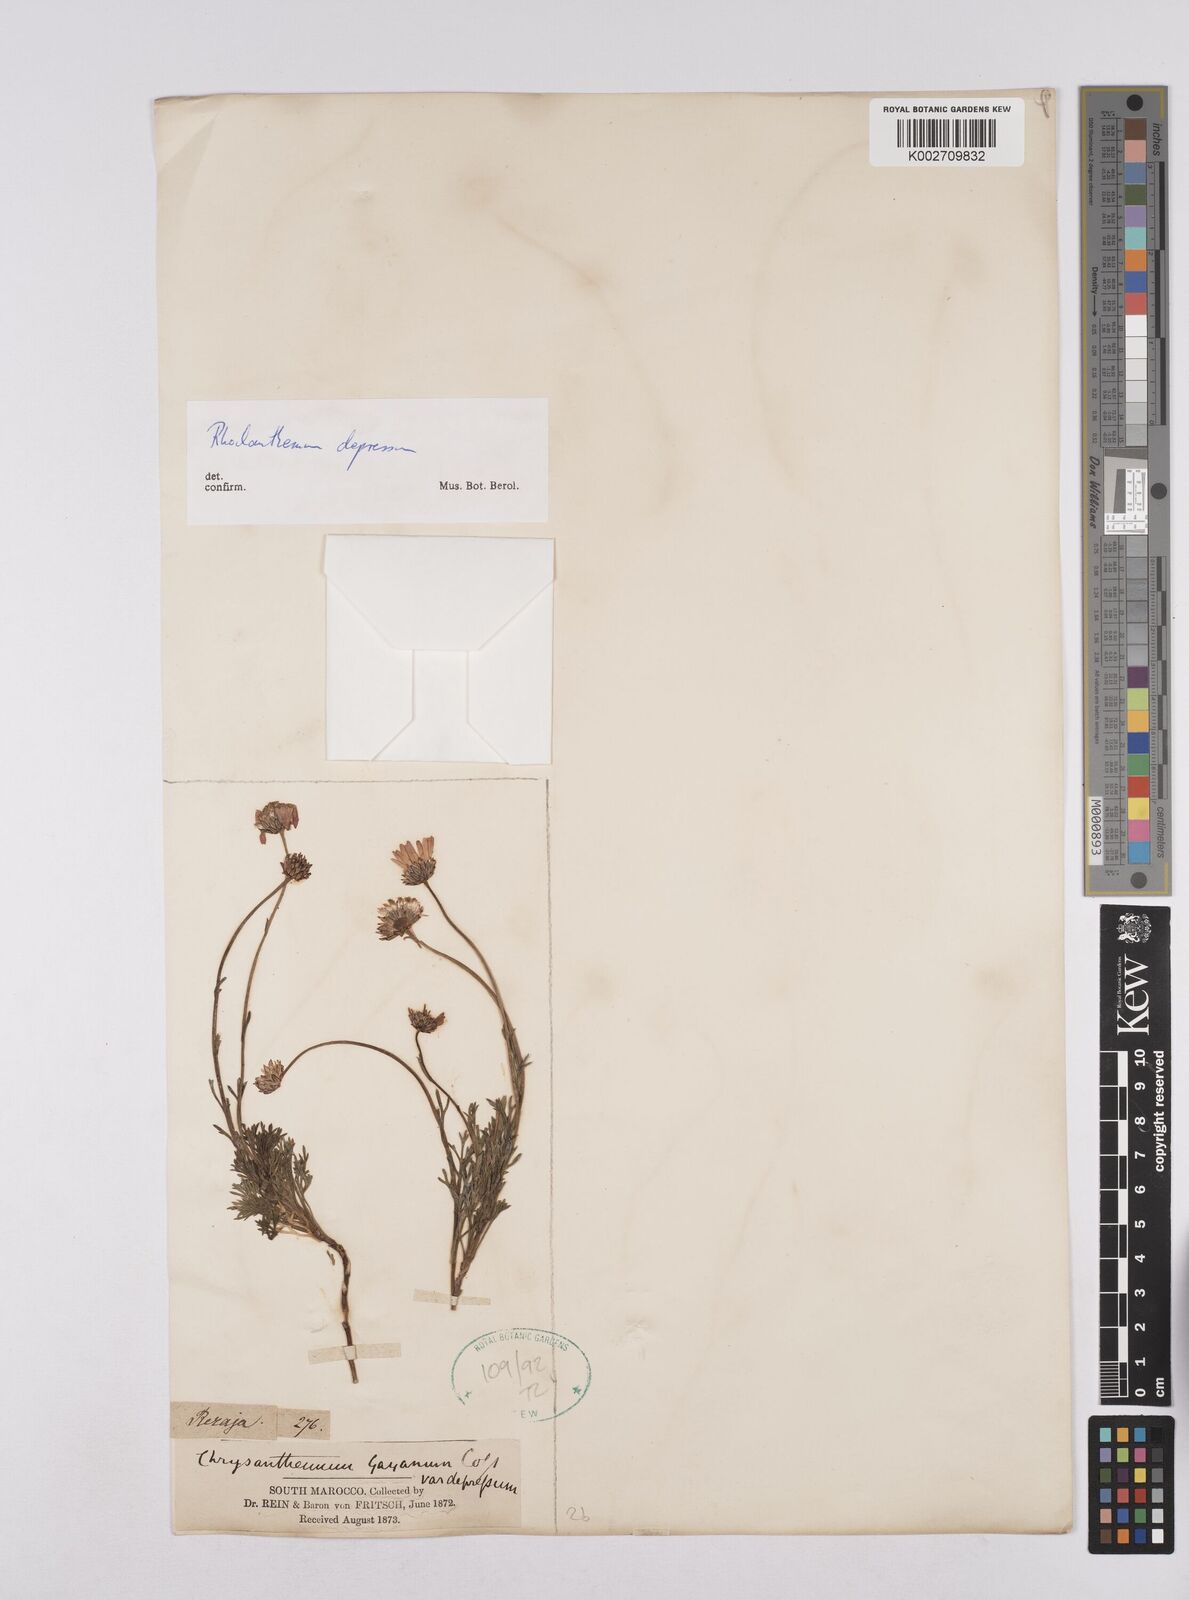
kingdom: Plantae
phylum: Tracheophyta
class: Magnoliopsida
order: Asterales
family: Asteraceae
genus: Rhodanthemum
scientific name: Rhodanthemum depressum
